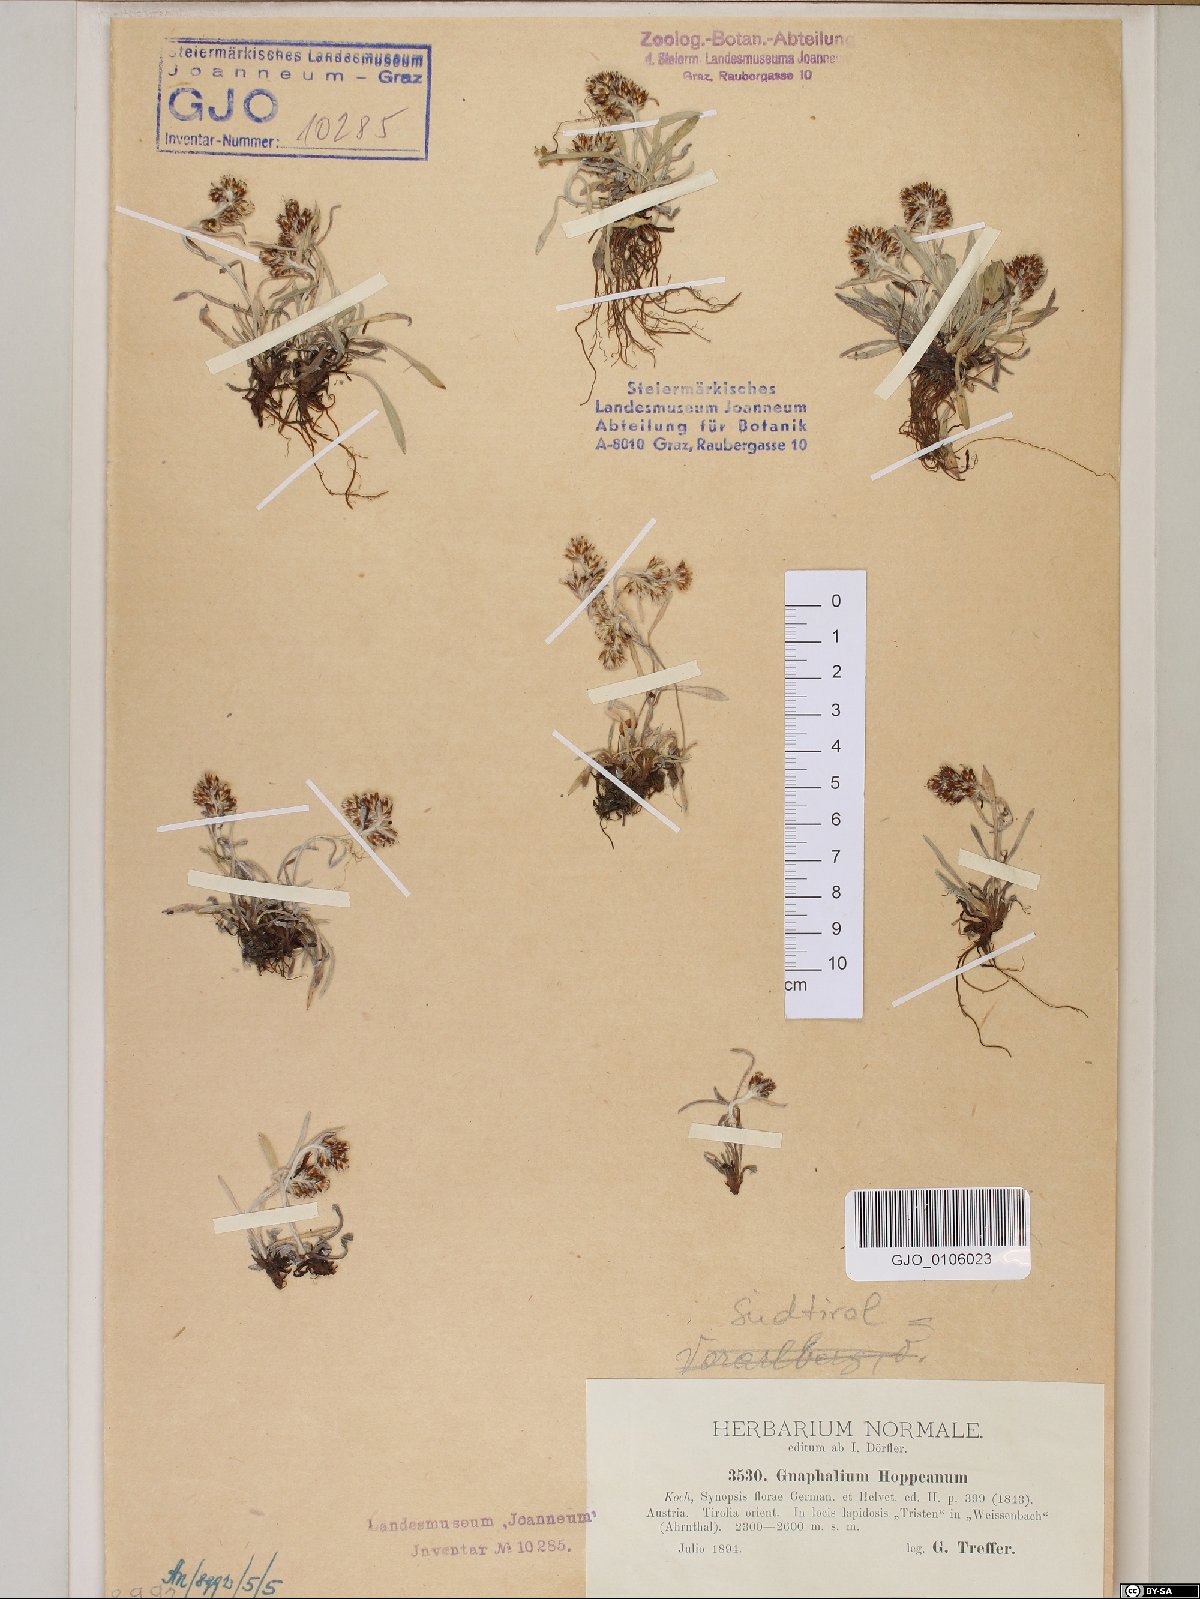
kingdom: Plantae
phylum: Tracheophyta
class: Magnoliopsida
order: Asterales
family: Asteraceae
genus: Omalotheca
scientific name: Omalotheca hoppeana
